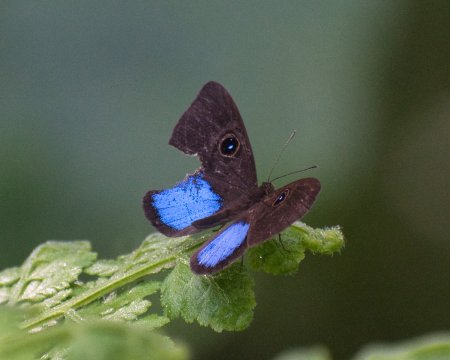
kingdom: Animalia
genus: Mesosemia
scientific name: Mesosemia carissima
